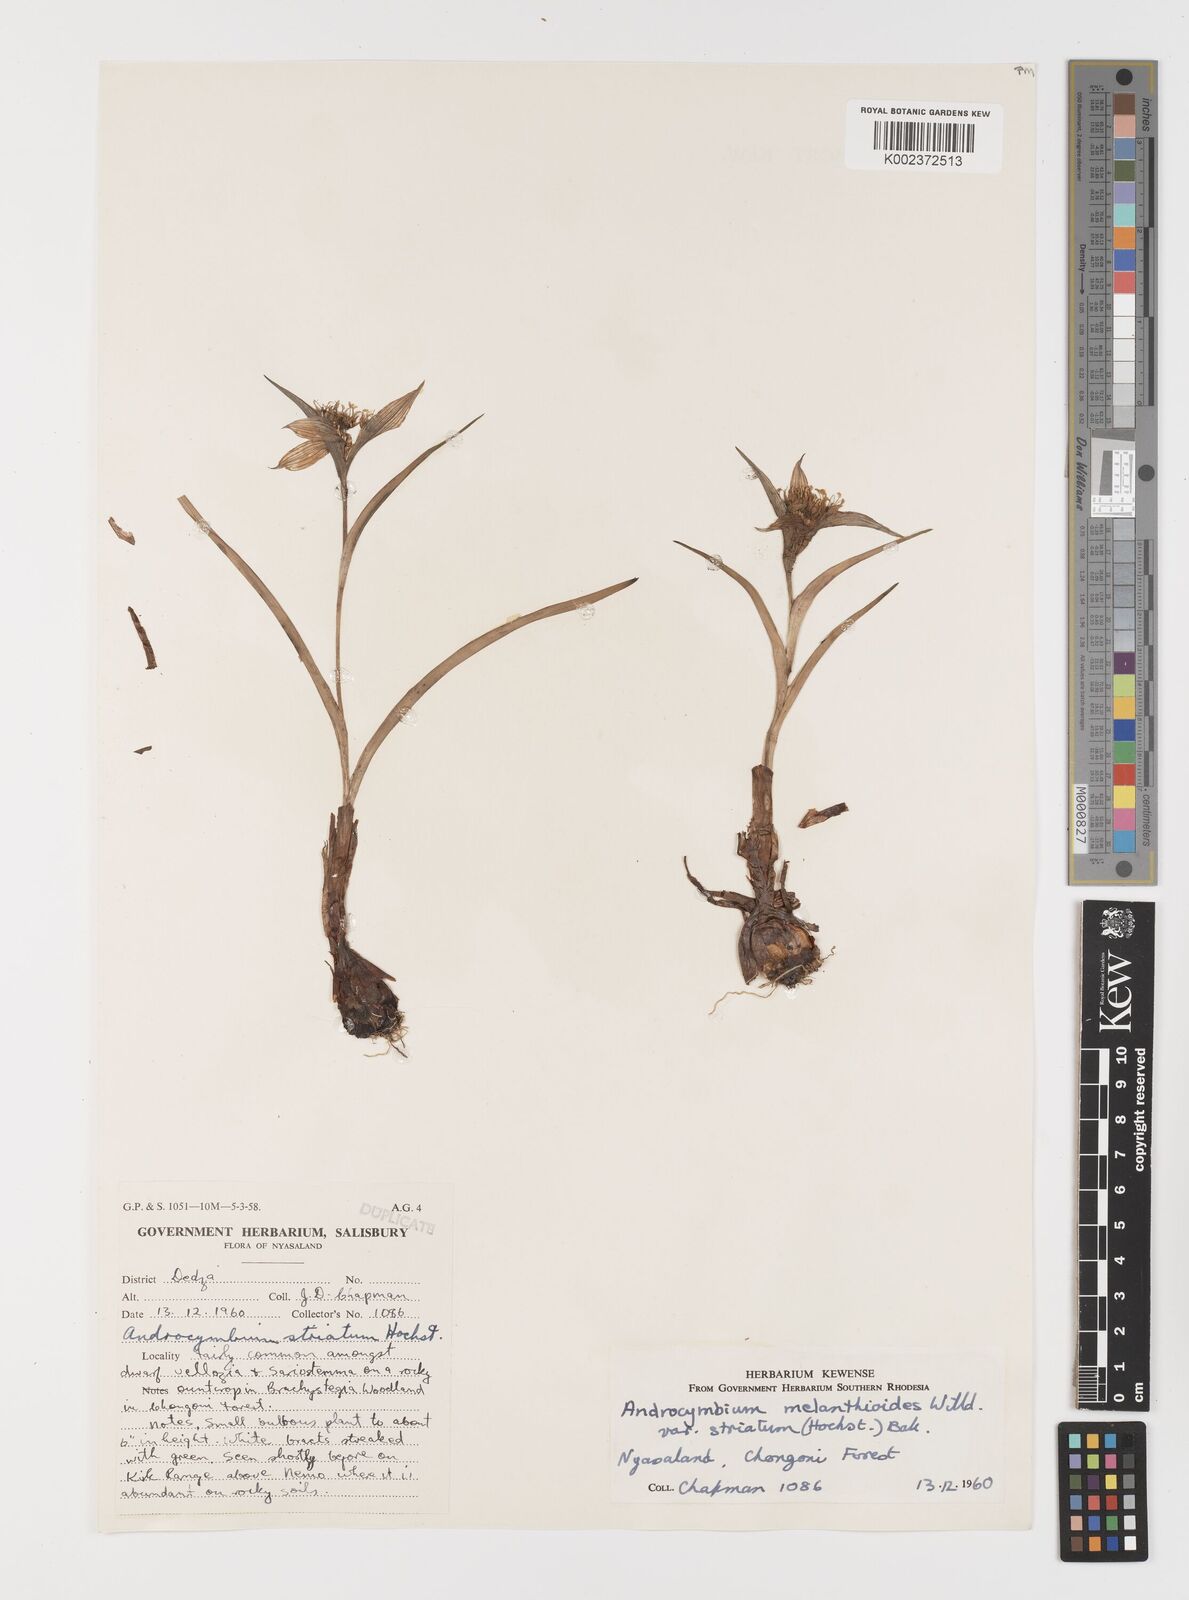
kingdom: Plantae
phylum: Tracheophyta
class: Liliopsida
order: Liliales
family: Colchicaceae
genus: Colchicum
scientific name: Colchicum melanthioides
